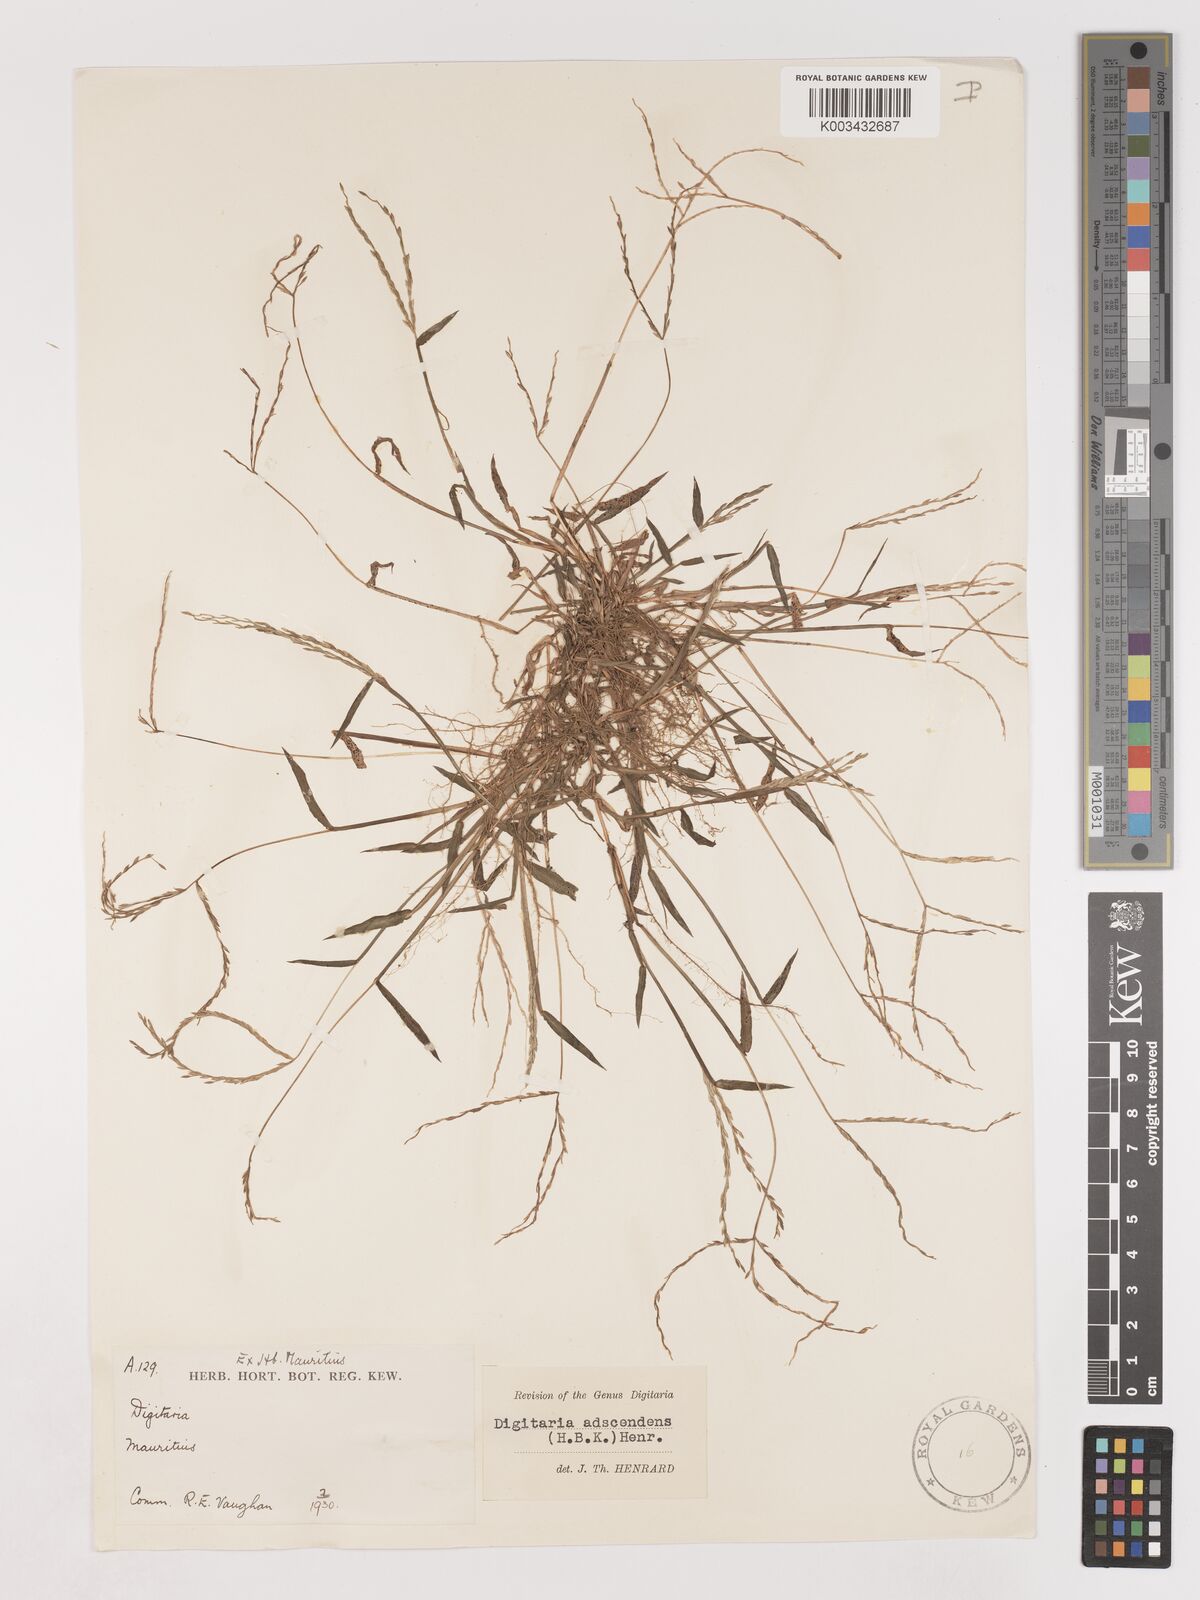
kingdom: Plantae
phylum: Tracheophyta
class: Liliopsida
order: Poales
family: Poaceae
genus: Digitaria
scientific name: Digitaria ciliaris
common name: Tropical finger-grass
